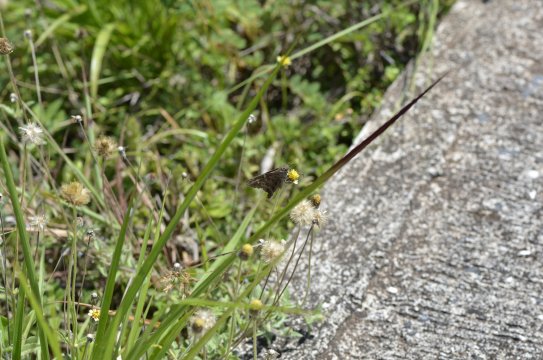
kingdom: Animalia
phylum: Arthropoda
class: Insecta
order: Lepidoptera
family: Hesperiidae
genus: Urbanus
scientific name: Urbanus dorantes
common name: Dorantes Longtail
